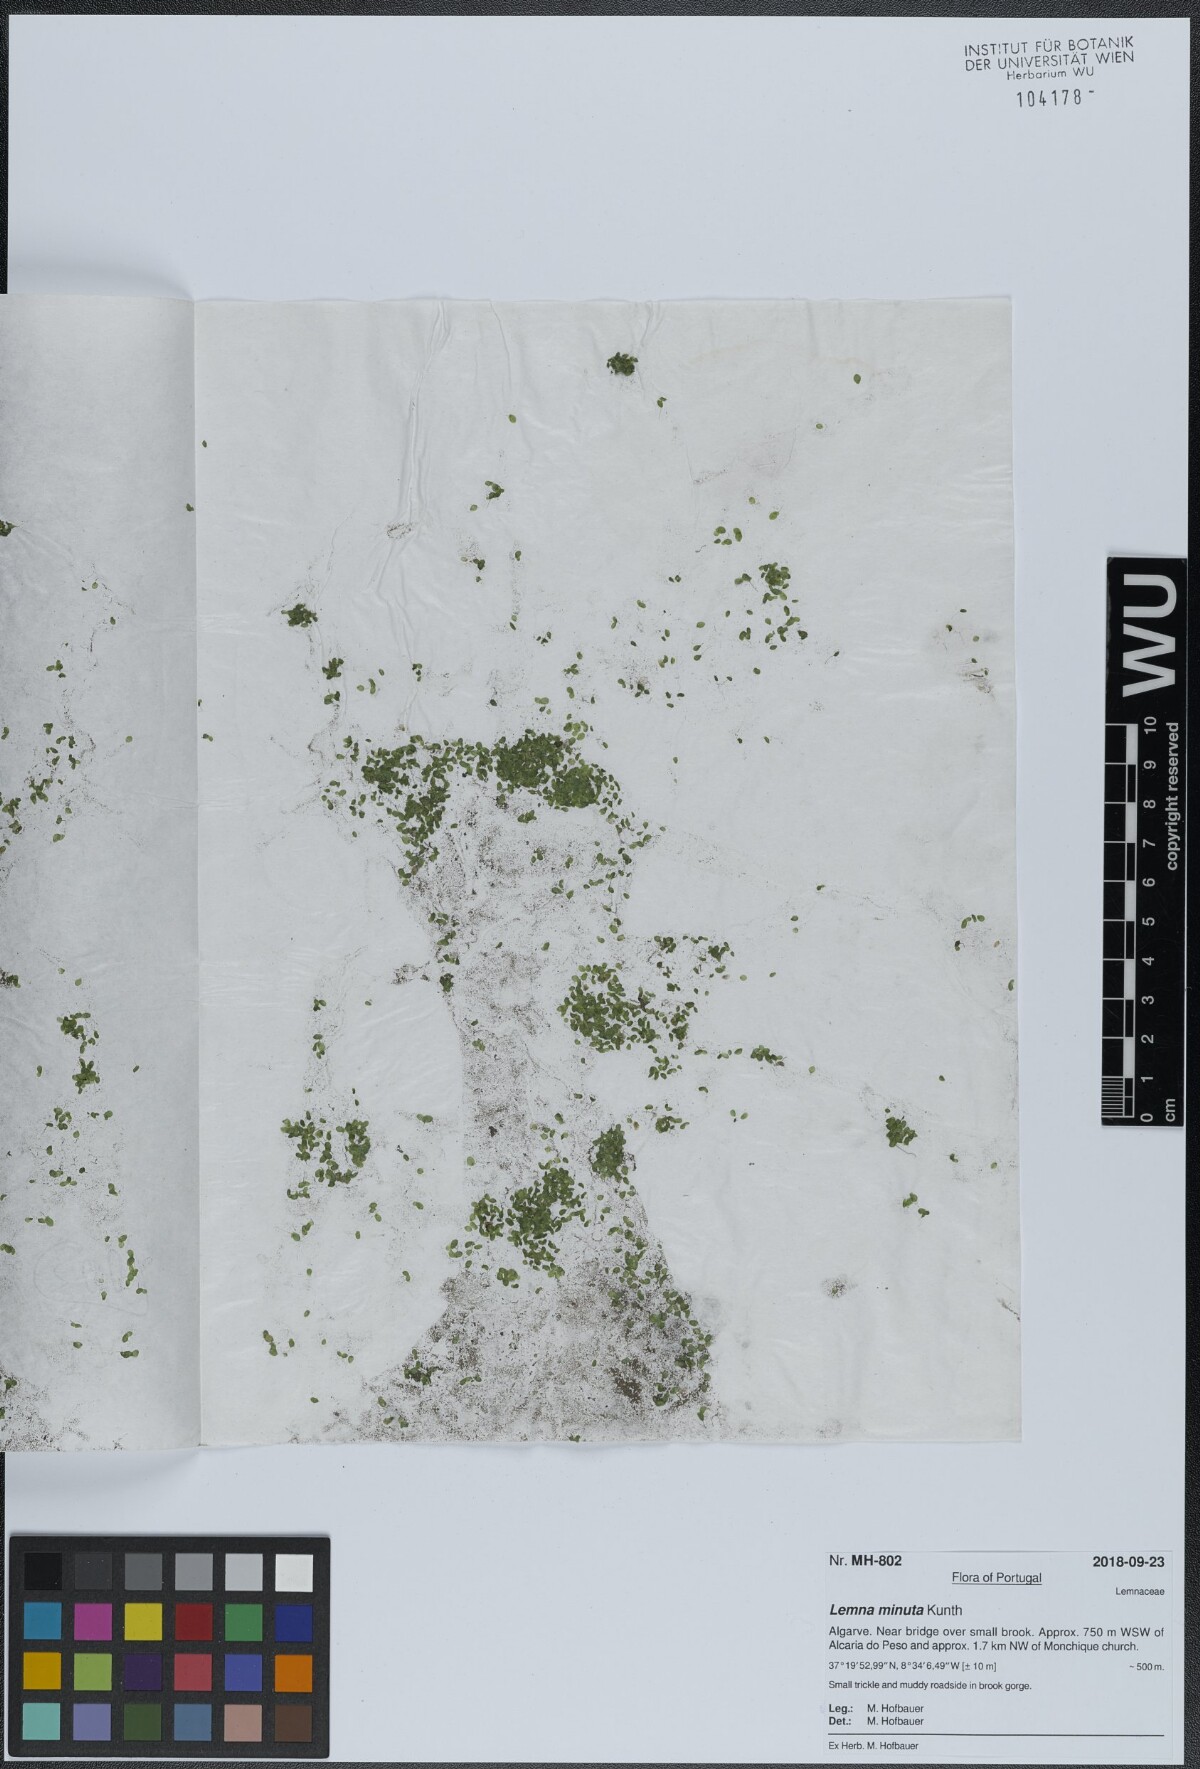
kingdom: Plantae
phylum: Tracheophyta
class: Liliopsida
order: Alismatales
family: Araceae
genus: Lemna
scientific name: Lemna minuta
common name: Least duckweed
